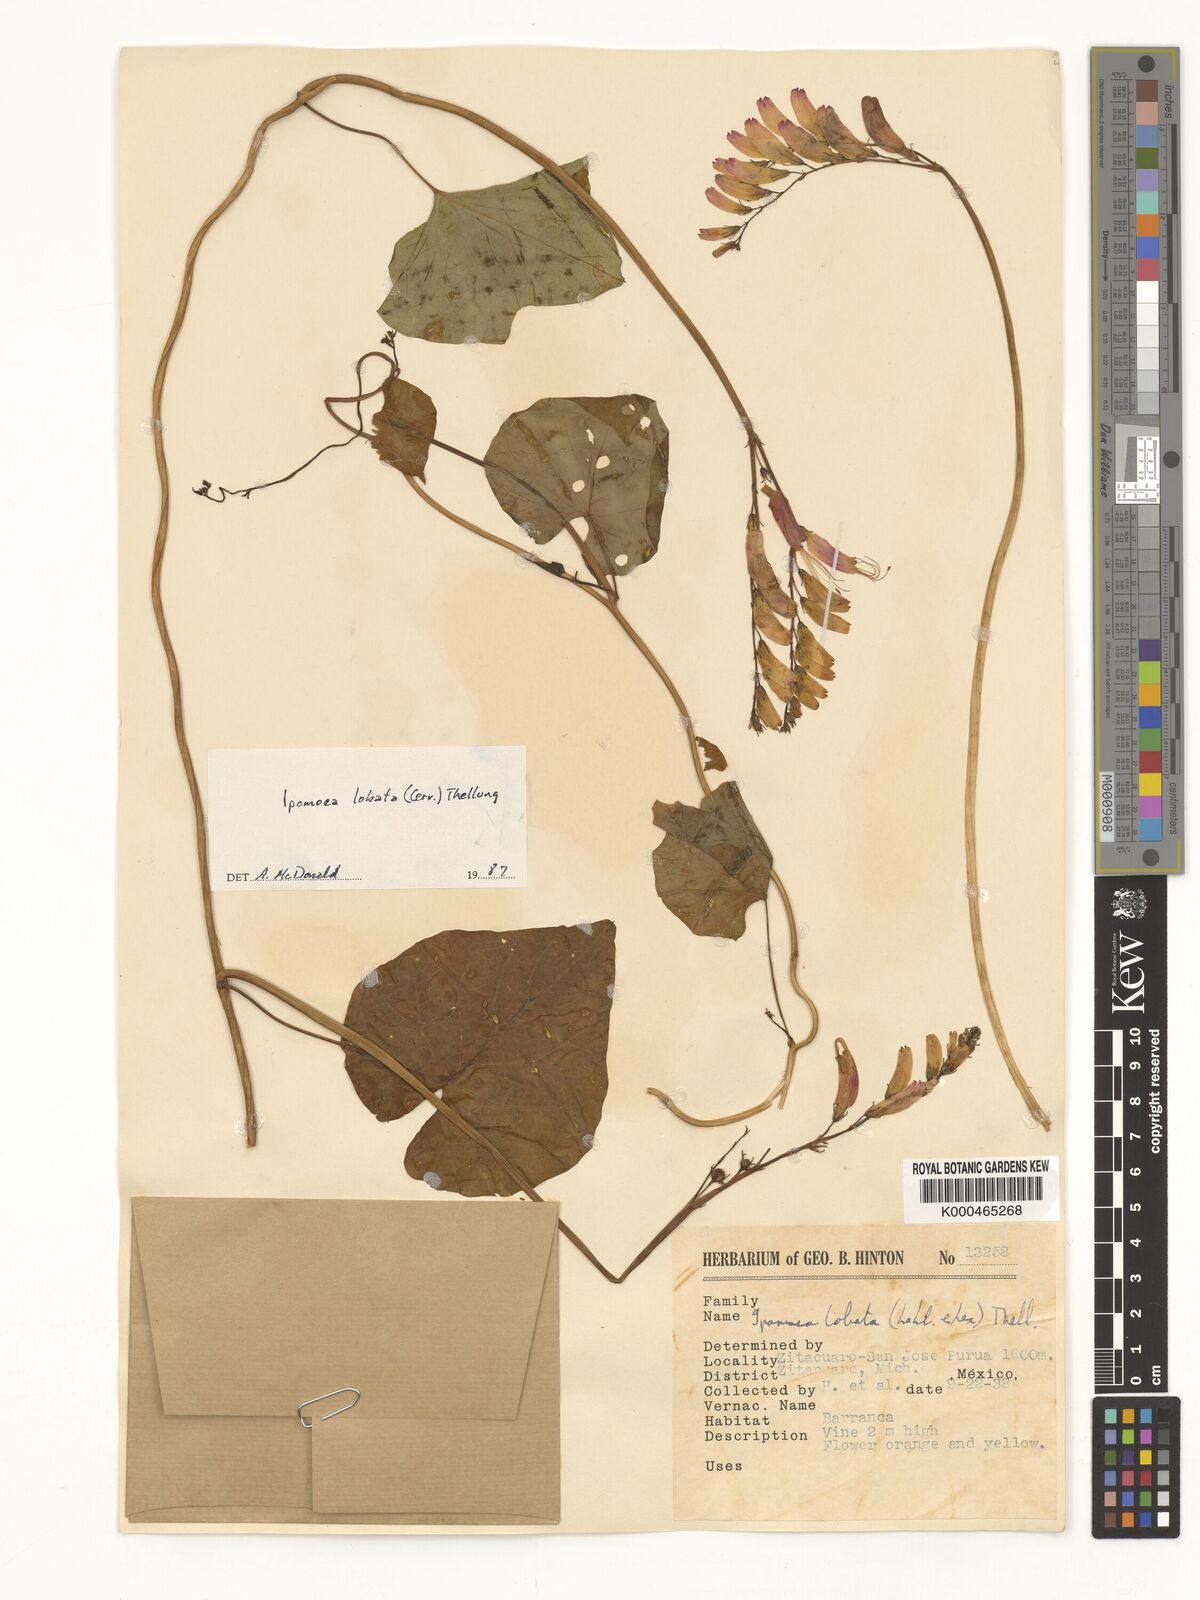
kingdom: Plantae
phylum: Tracheophyta
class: Magnoliopsida
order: Solanales
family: Convolvulaceae
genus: Ipomoea
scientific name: Ipomoea lobata
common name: Spanish-flag
